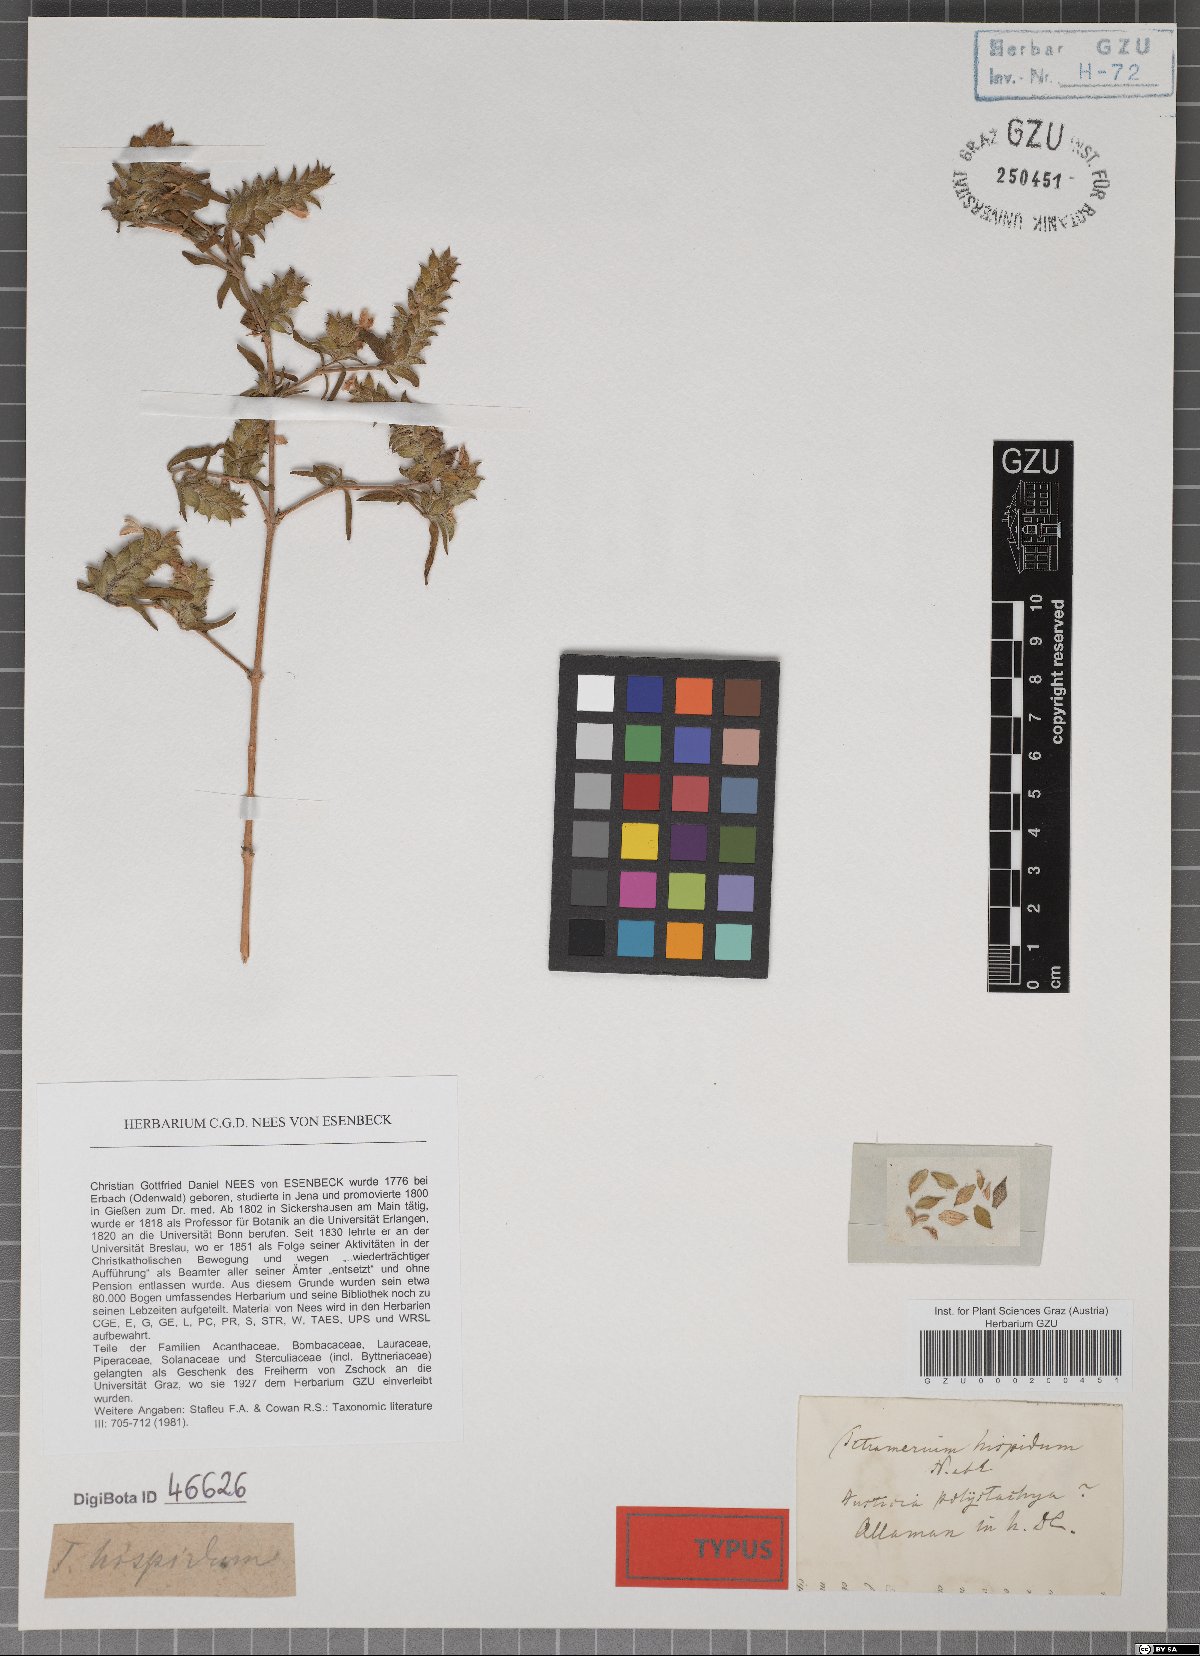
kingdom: Plantae
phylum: Tracheophyta
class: Magnoliopsida
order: Lamiales
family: Acanthaceae
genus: Tetramerium
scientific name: Tetramerium nervosum
